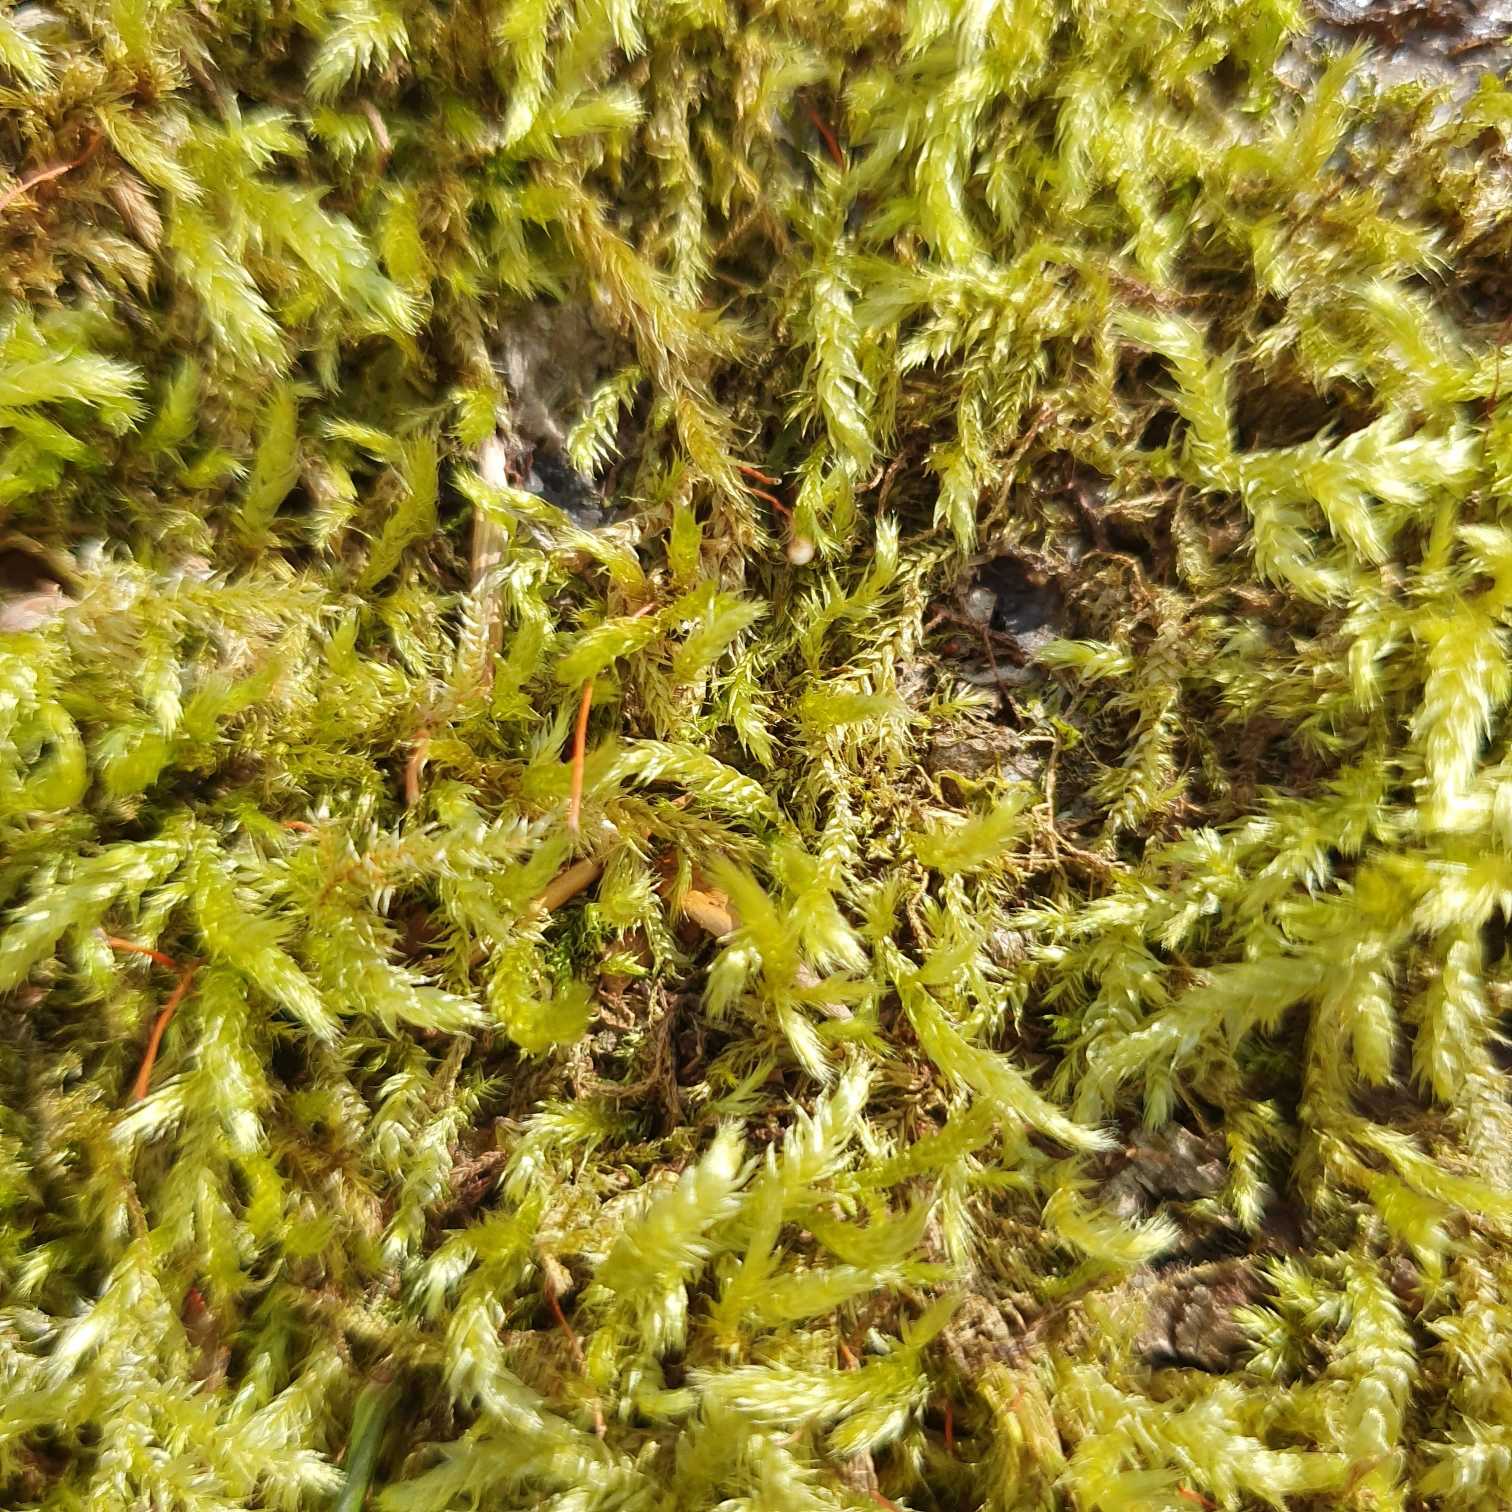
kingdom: Plantae
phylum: Bryophyta
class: Bryopsida
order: Hypnales
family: Brachytheciaceae
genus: Brachythecium
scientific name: Brachythecium
